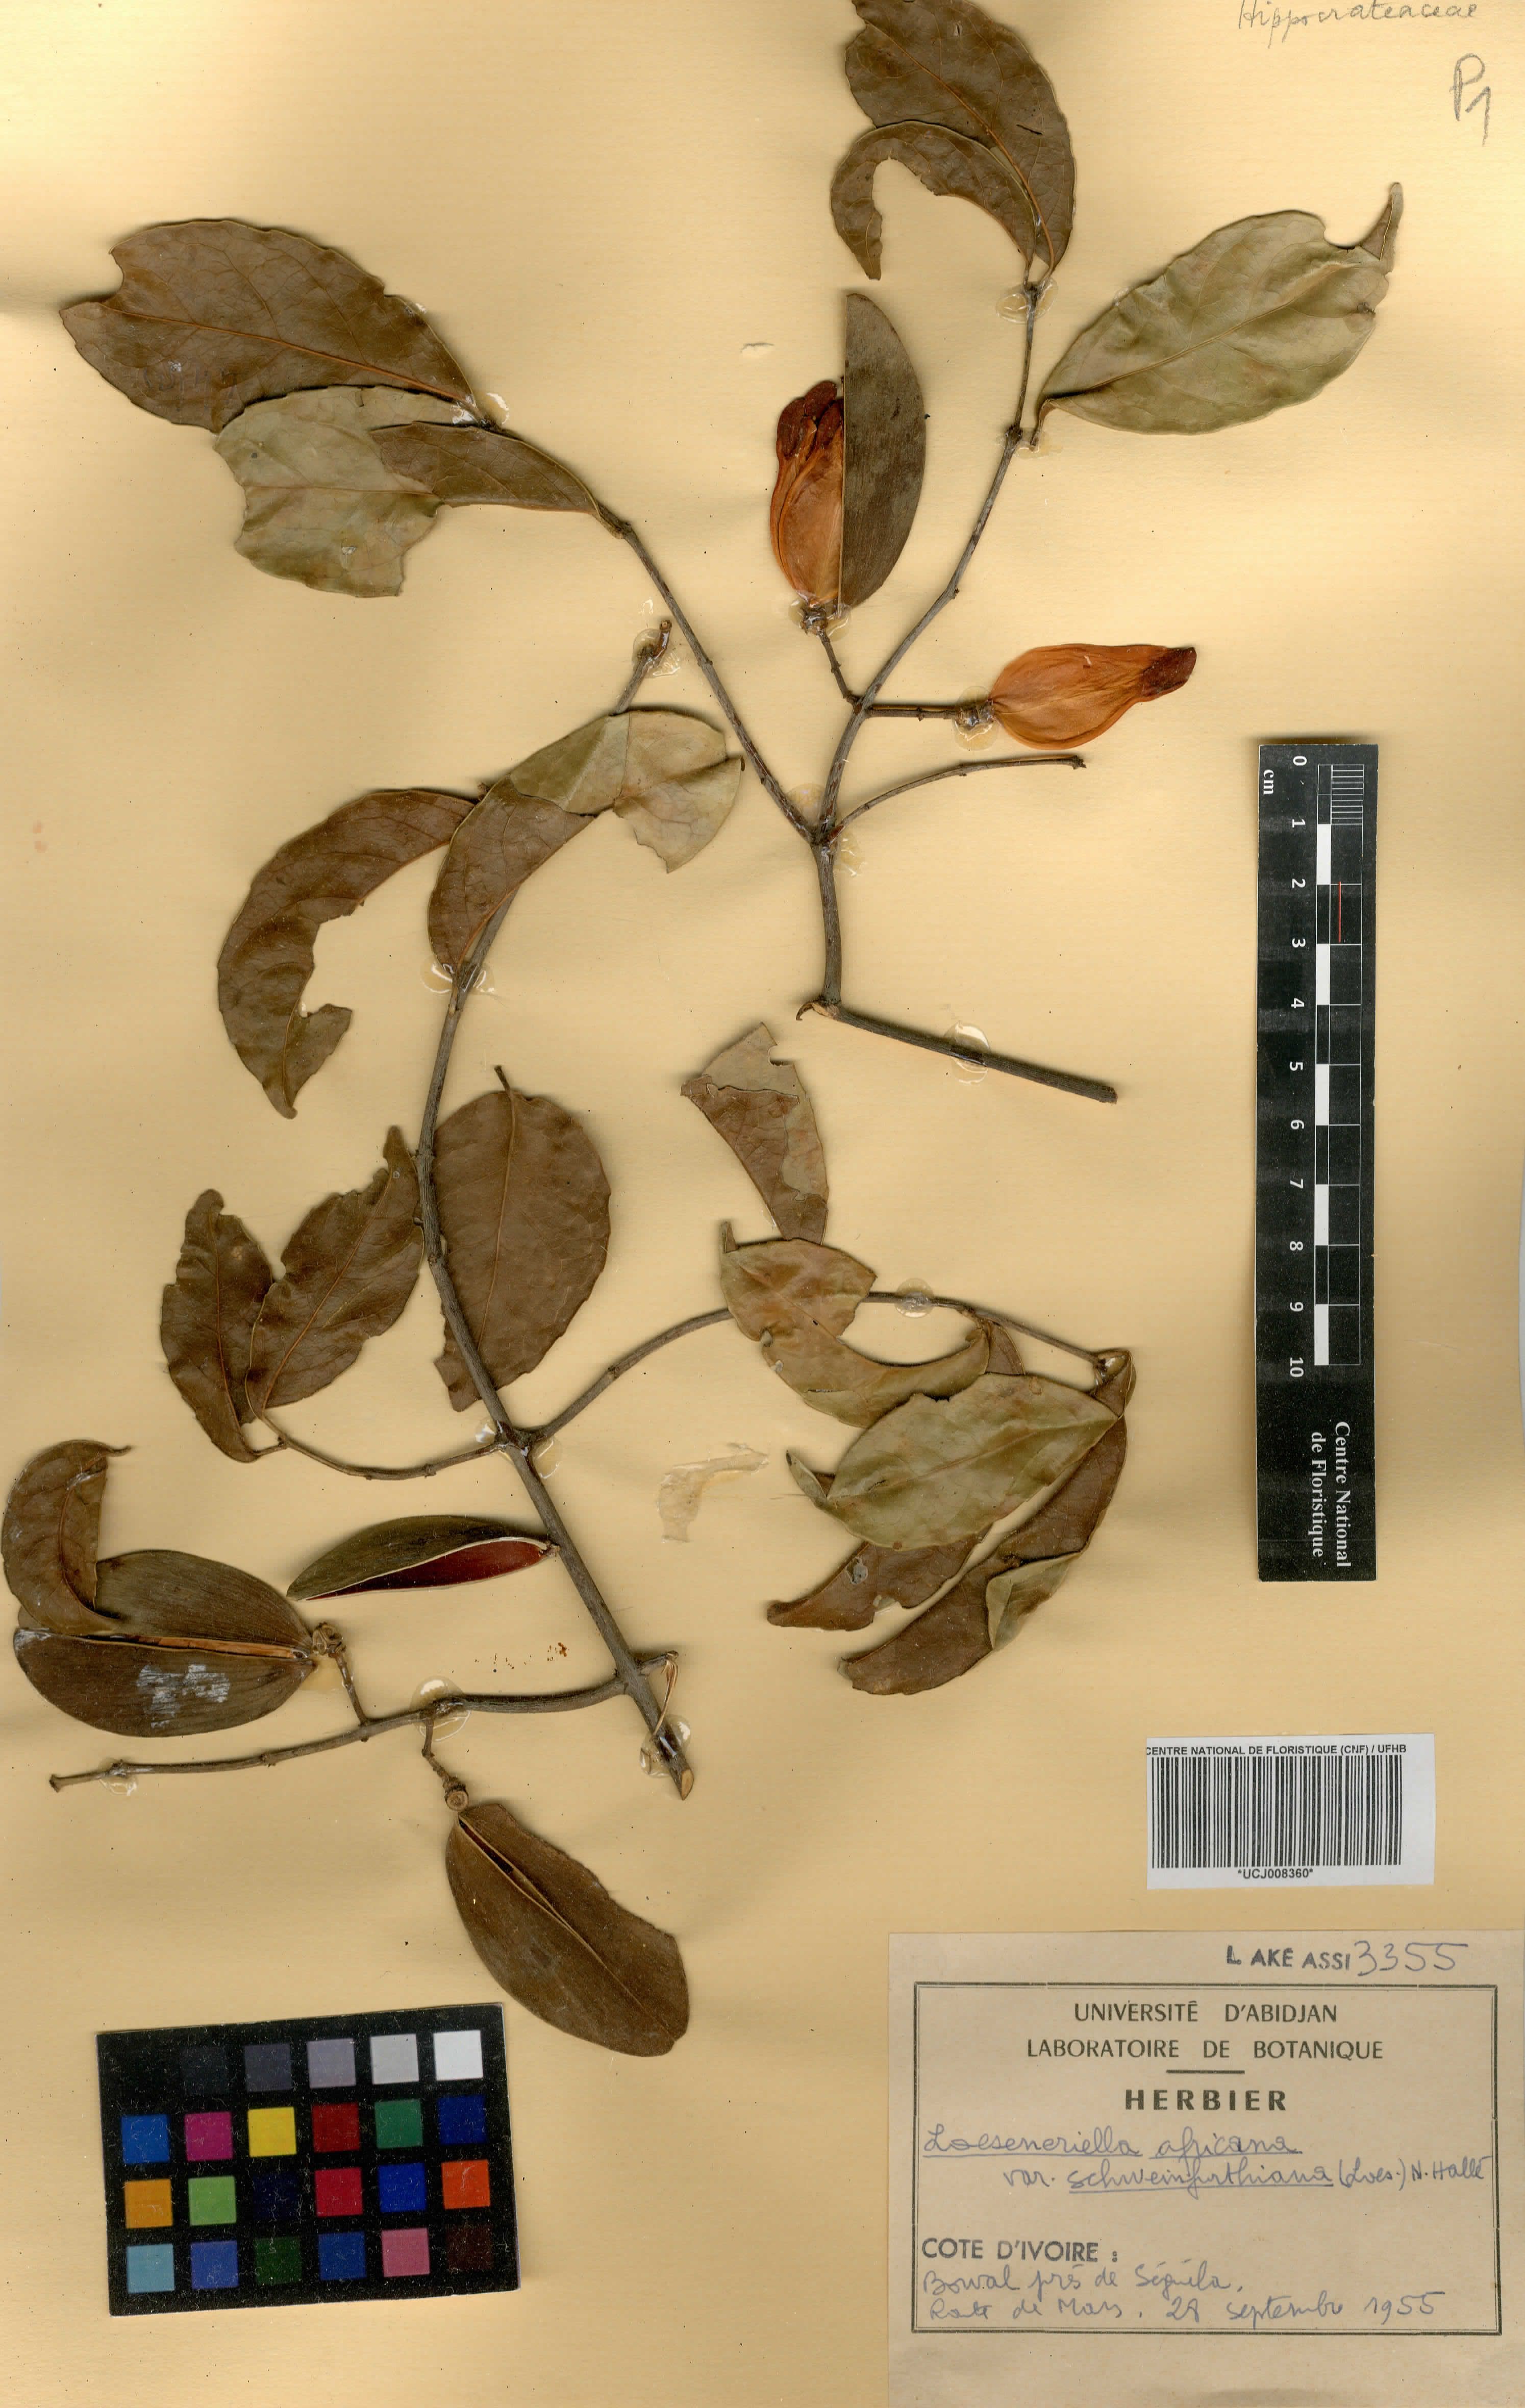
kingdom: Plantae
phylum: Tracheophyta
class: Magnoliopsida
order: Celastrales
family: Celastraceae
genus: Loeseneriella
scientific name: Loeseneriella africana
